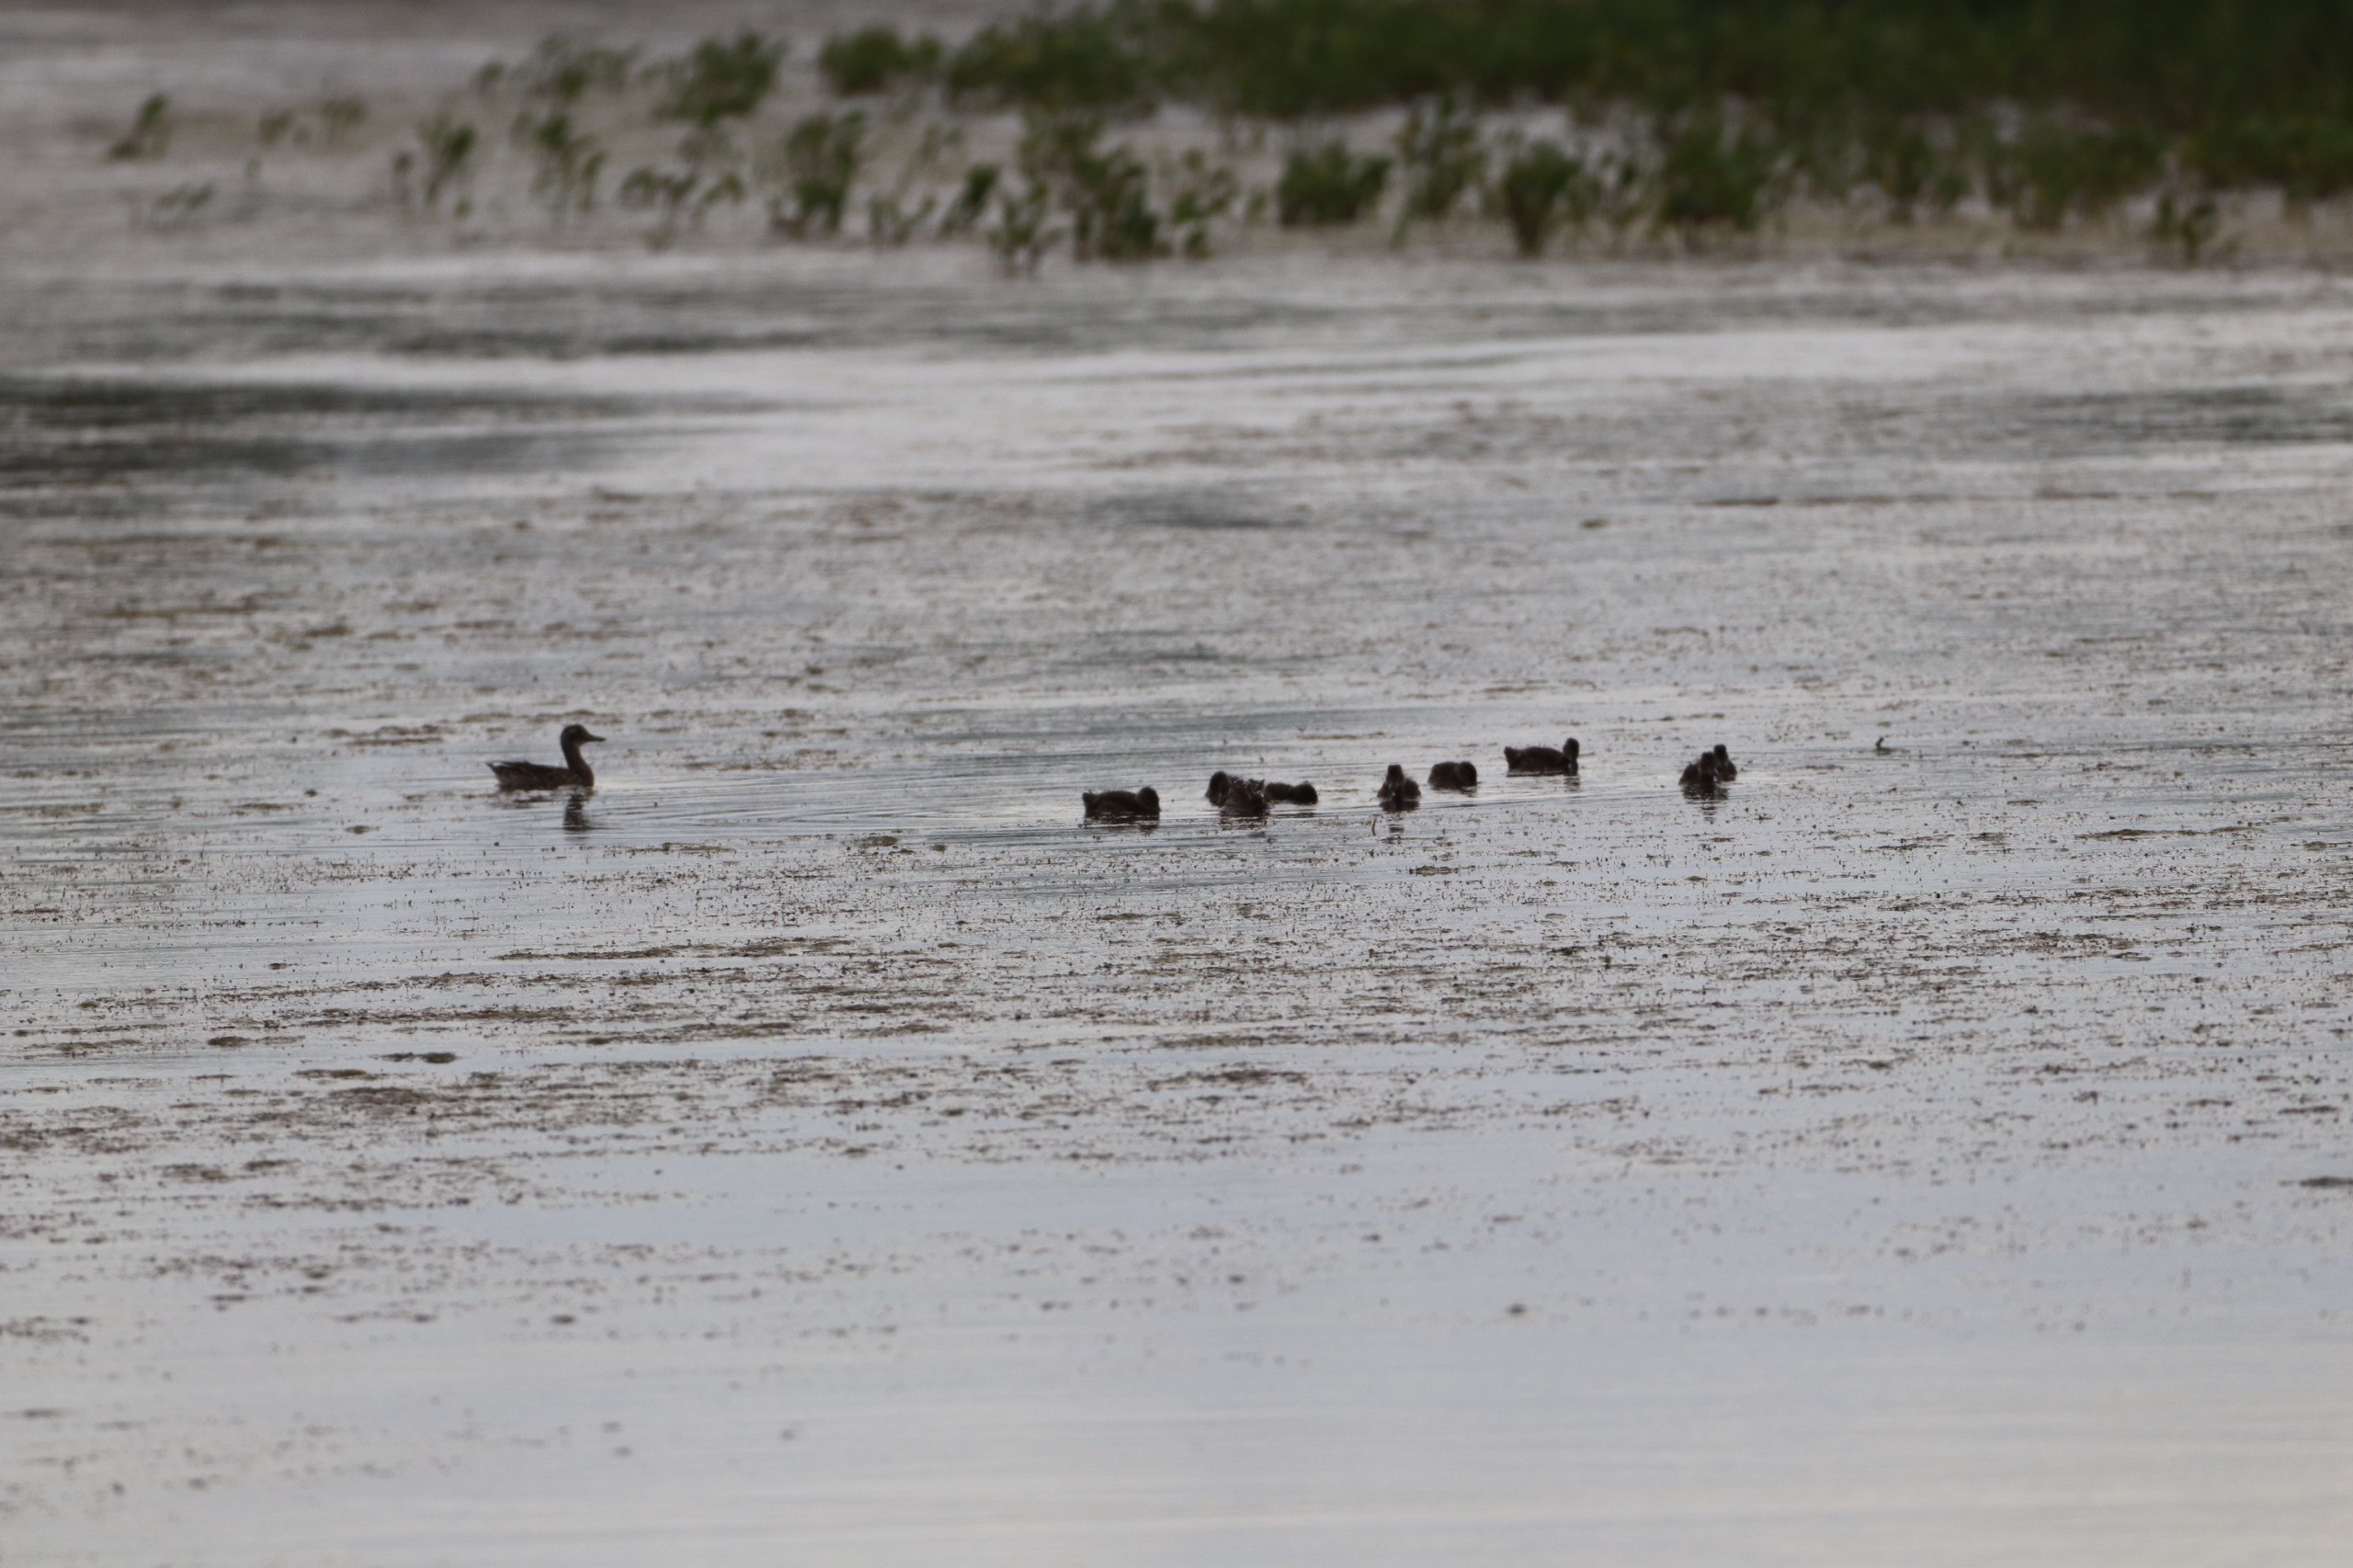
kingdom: Animalia
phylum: Chordata
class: Aves
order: Anseriformes
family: Anatidae
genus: Spatula
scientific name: Spatula querquedula
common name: Atlingand
